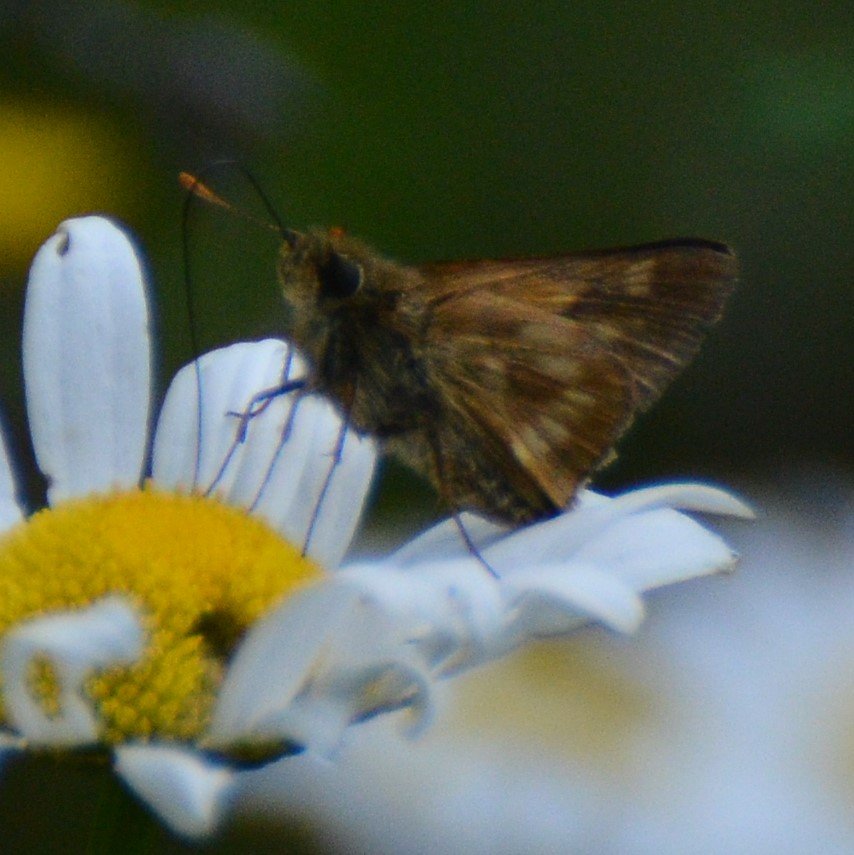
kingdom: Animalia
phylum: Arthropoda
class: Insecta
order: Lepidoptera
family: Hesperiidae
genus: Polites
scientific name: Polites
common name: Long Dash Skipper
